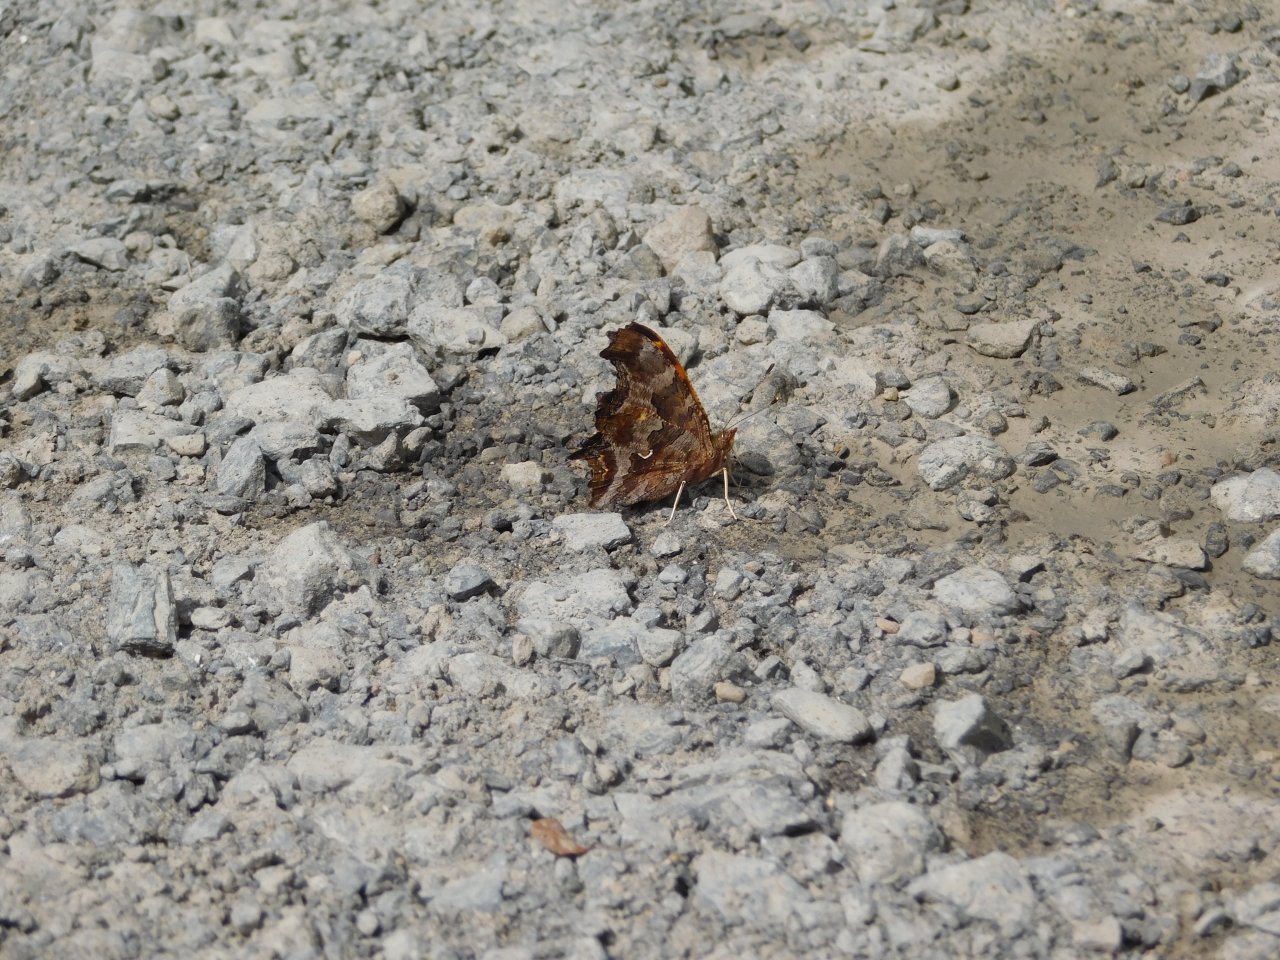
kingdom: Animalia
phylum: Arthropoda
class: Insecta
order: Lepidoptera
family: Nymphalidae
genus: Polygonia
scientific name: Polygonia comma
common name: Eastern Comma
